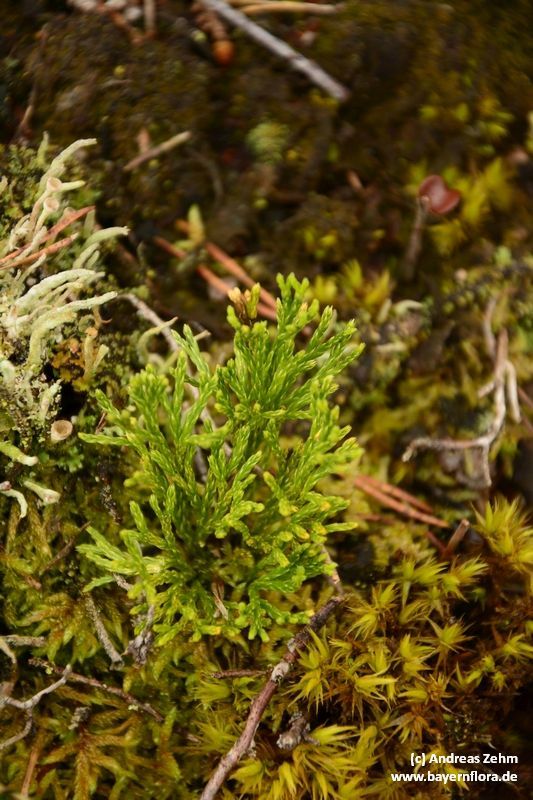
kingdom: Plantae
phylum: Tracheophyta
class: Lycopodiopsida
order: Lycopodiales
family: Lycopodiaceae
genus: Diphasiastrum
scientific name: Diphasiastrum tristachyum
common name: Blue ground-cedar
